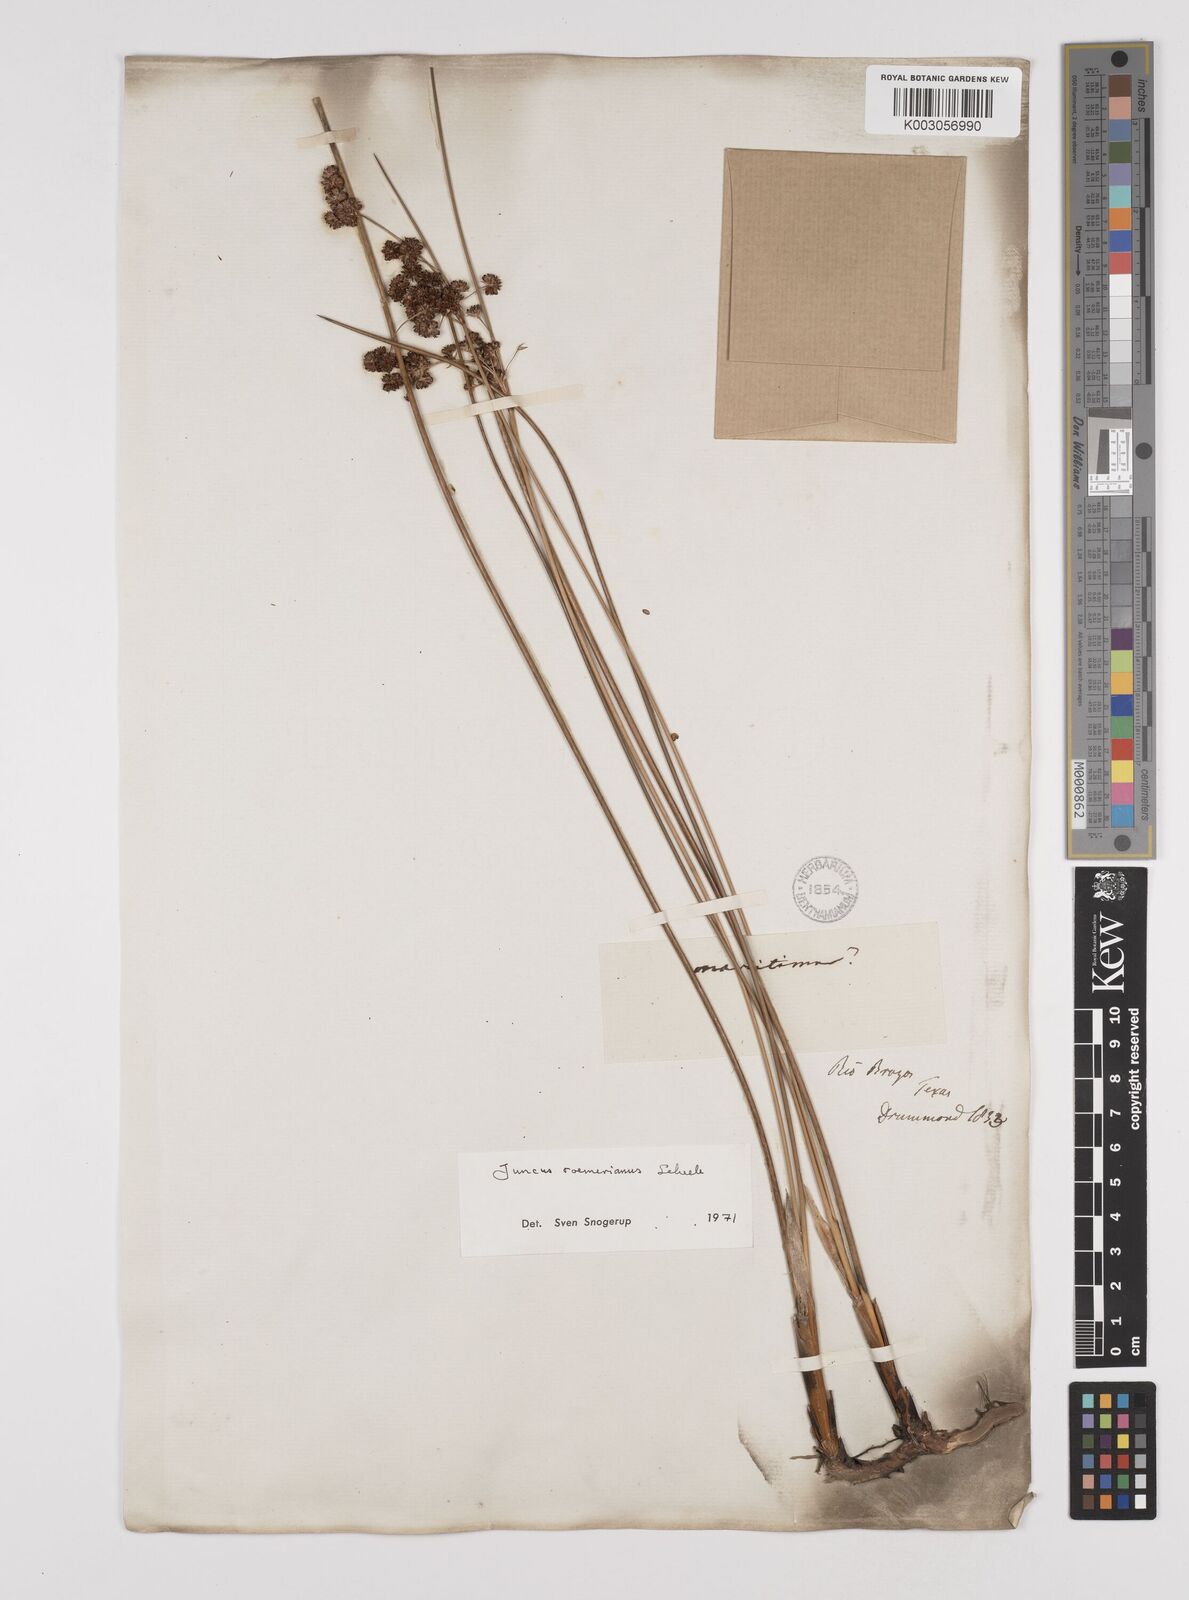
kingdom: Plantae
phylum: Tracheophyta
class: Liliopsida
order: Poales
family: Juncaceae
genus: Juncus
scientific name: Juncus roemerianus
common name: Roemer's rush
